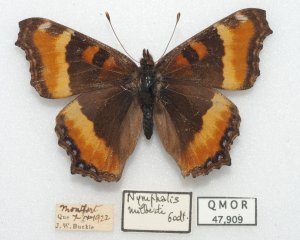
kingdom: Animalia
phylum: Arthropoda
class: Insecta
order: Lepidoptera
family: Nymphalidae
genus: Aglais
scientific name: Aglais milberti
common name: Milbert's Tortoiseshell
